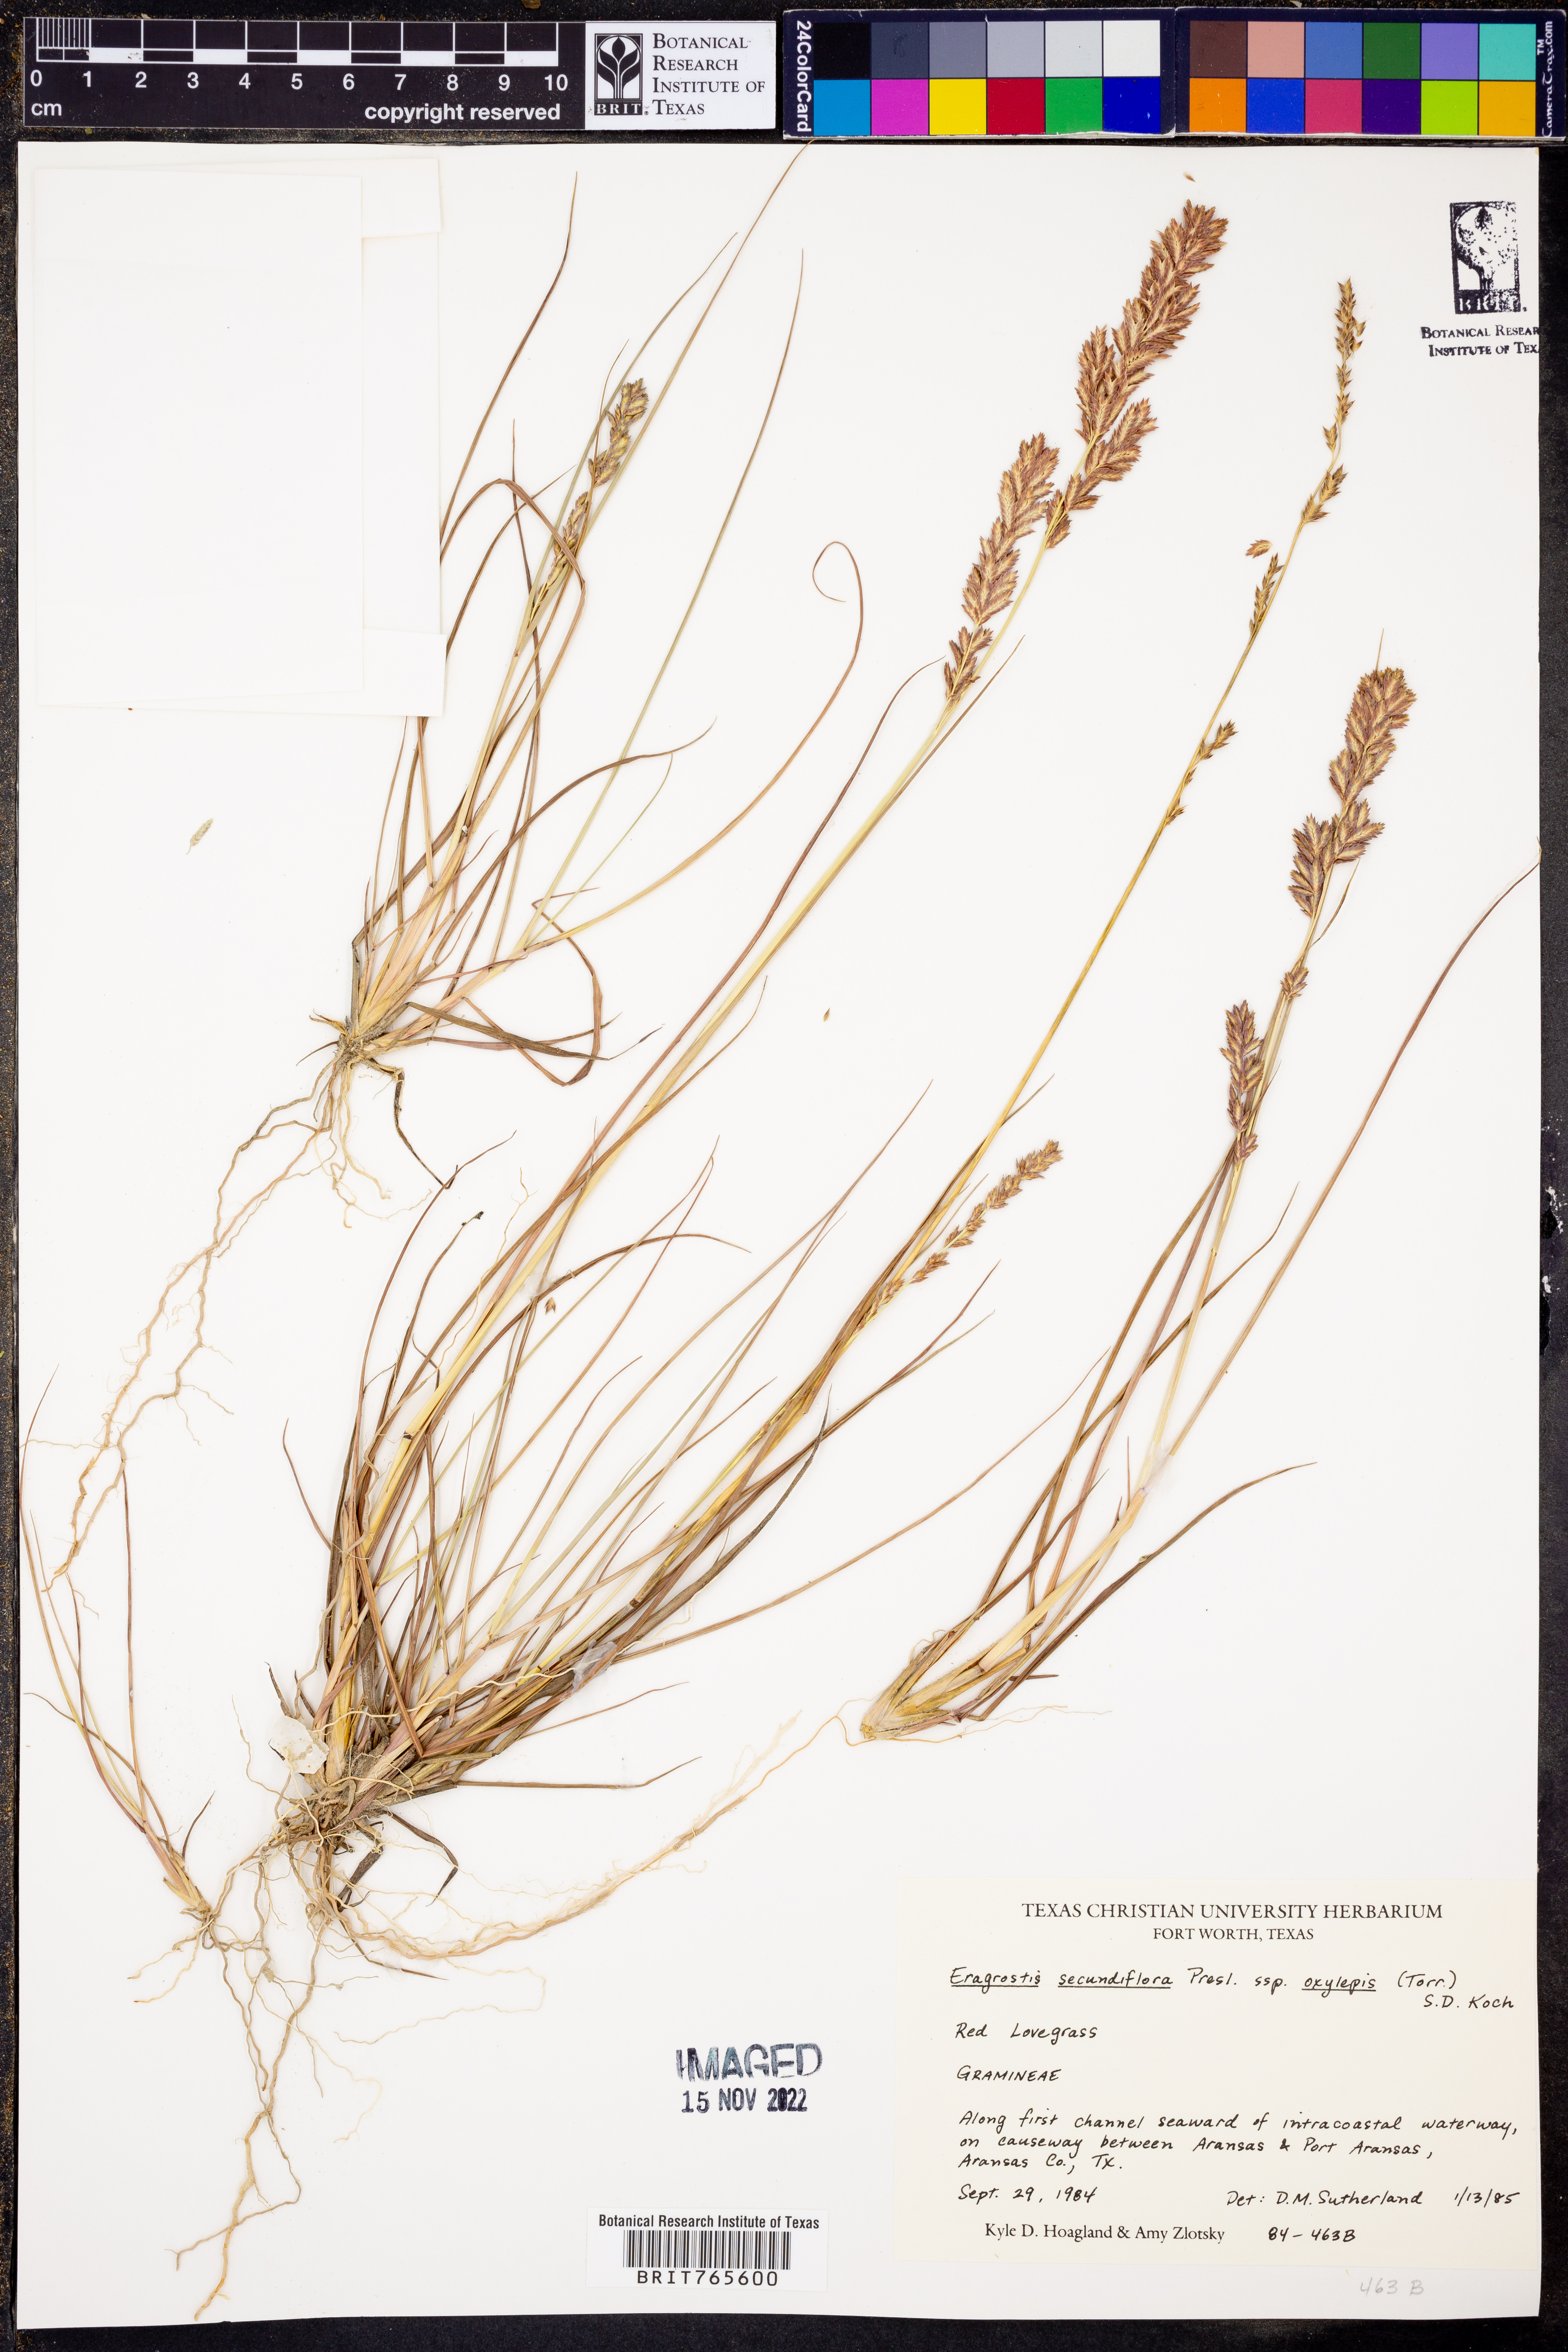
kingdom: Plantae
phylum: Tracheophyta
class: Liliopsida
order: Poales
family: Poaceae
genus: Eragrostis
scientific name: Eragrostis secundiflora
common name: Red love grass
